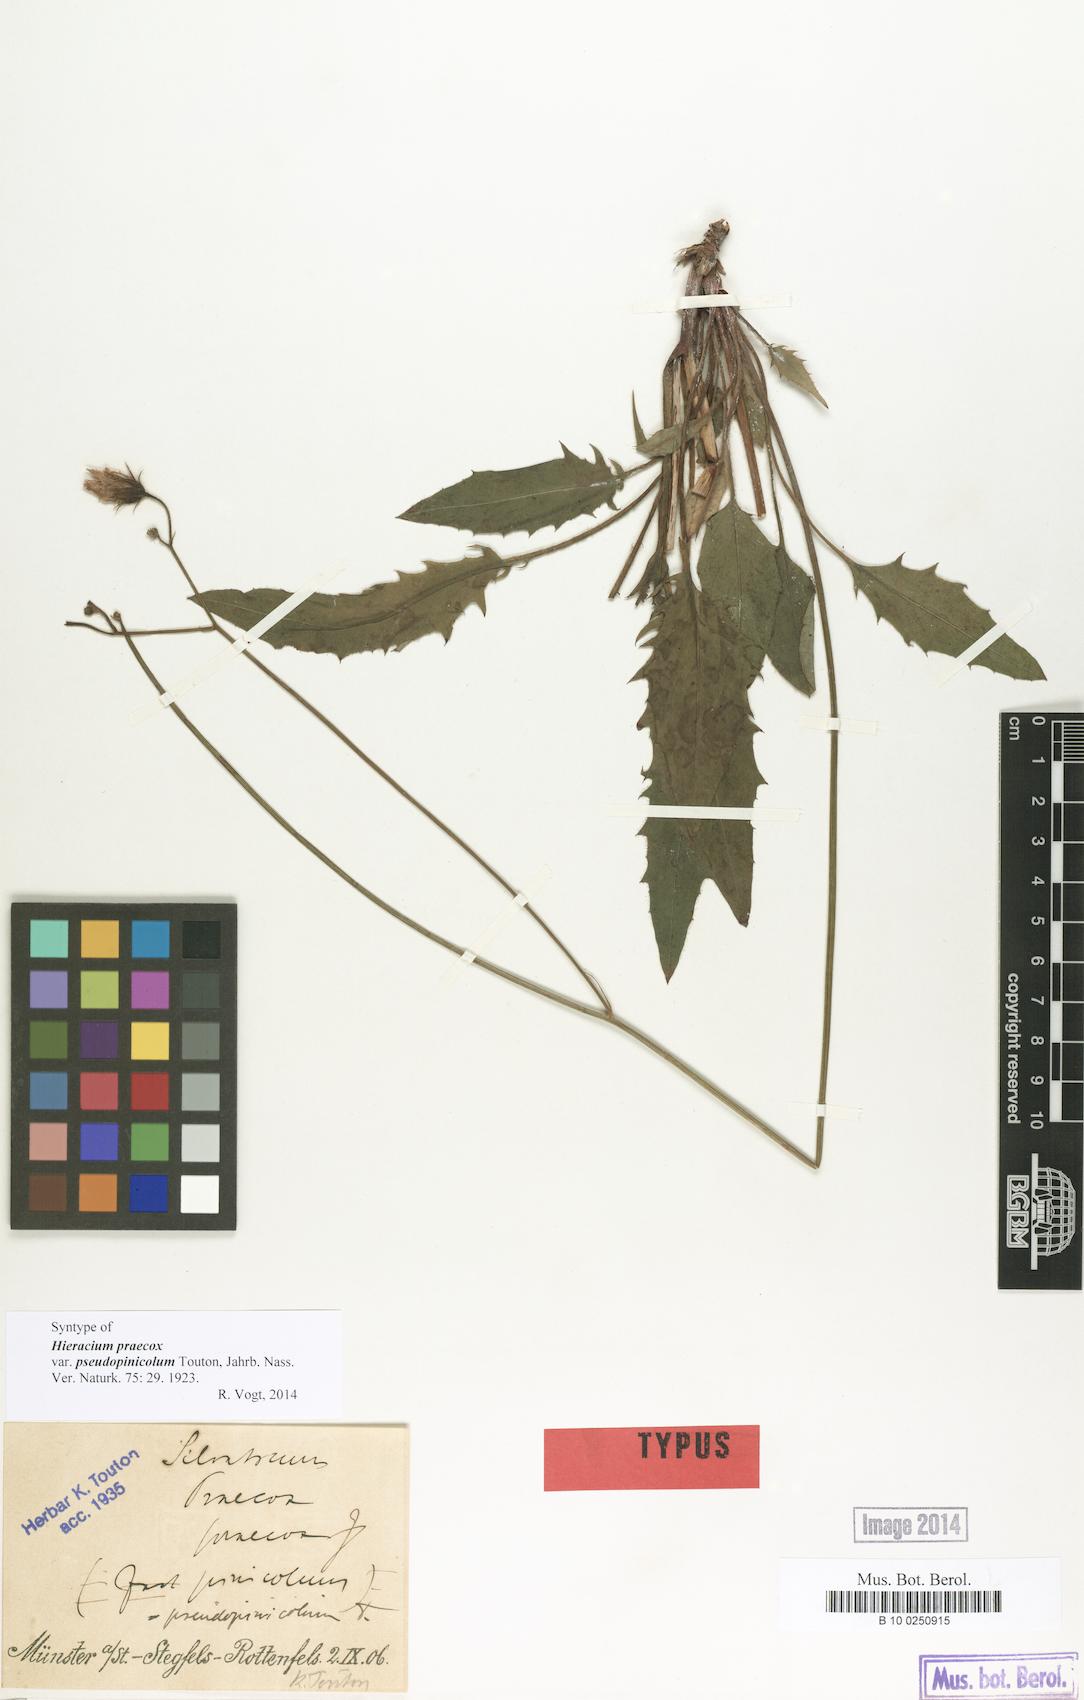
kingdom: Plantae
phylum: Tracheophyta
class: Magnoliopsida
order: Asterales
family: Asteraceae
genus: Hieracium
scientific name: Hieracium praecox
